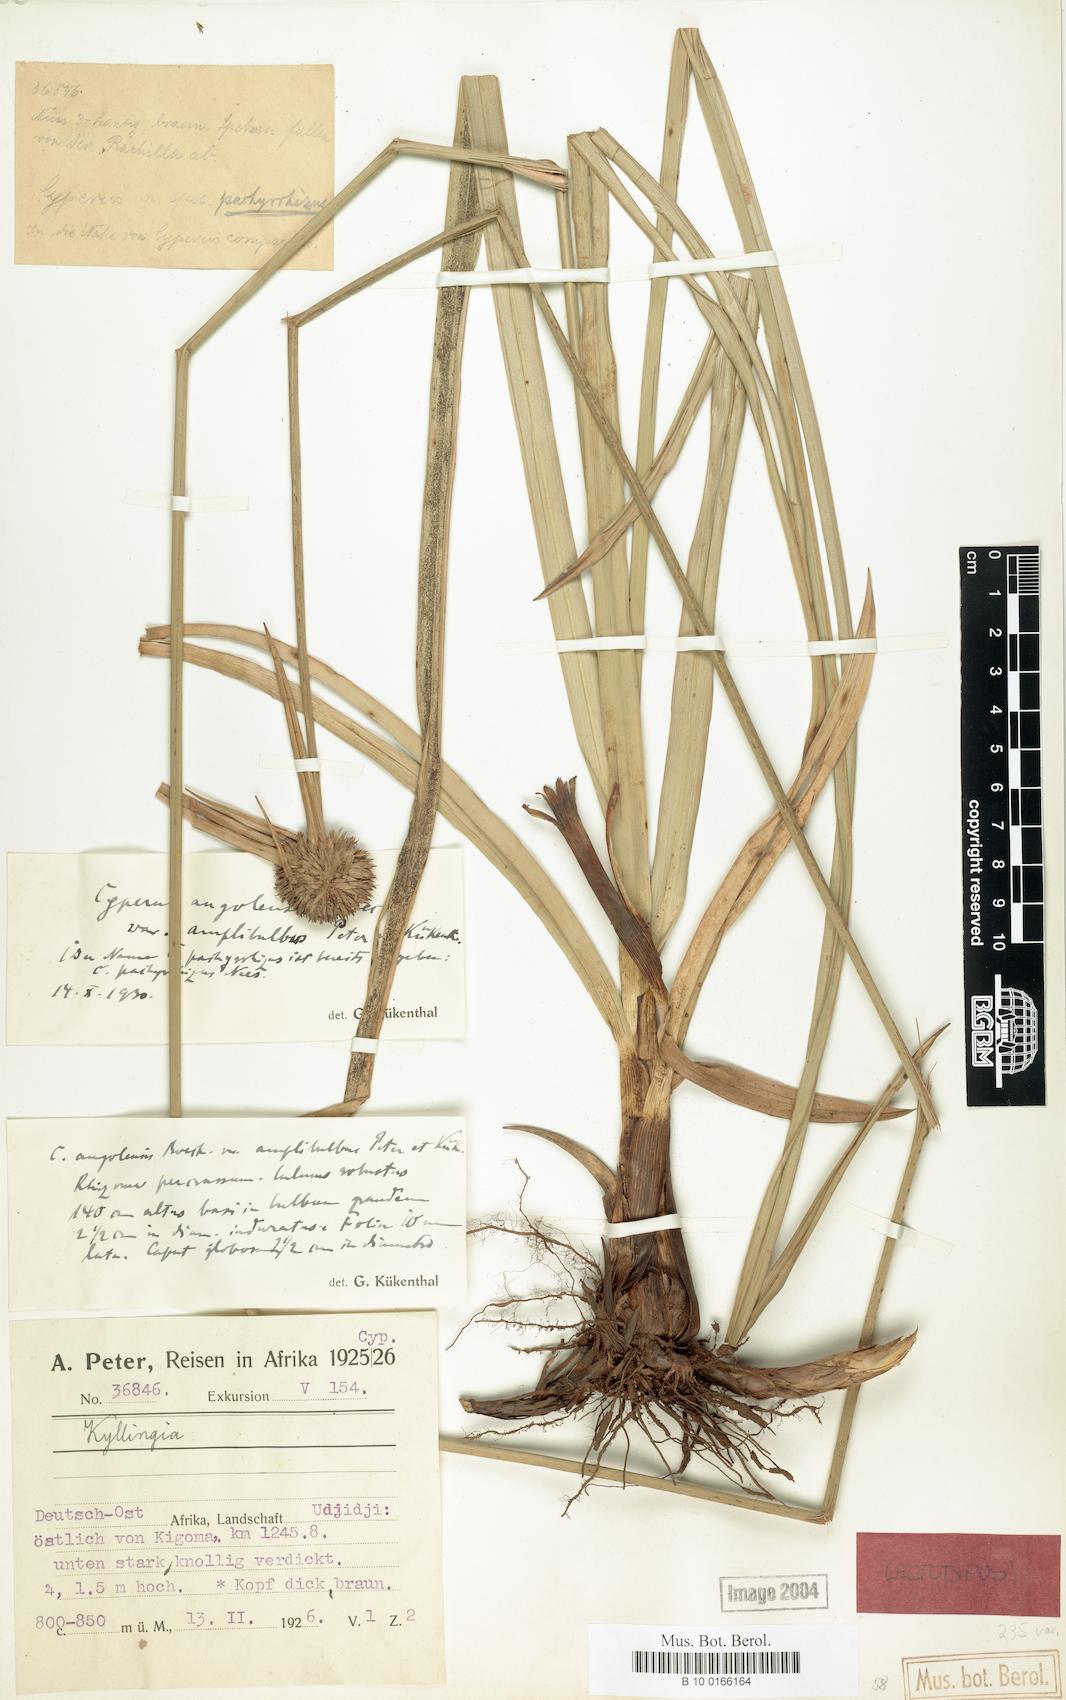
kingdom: Plantae
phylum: Tracheophyta
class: Liliopsida
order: Poales
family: Cyperaceae
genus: Cyperus
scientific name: Cyperus angolensis
